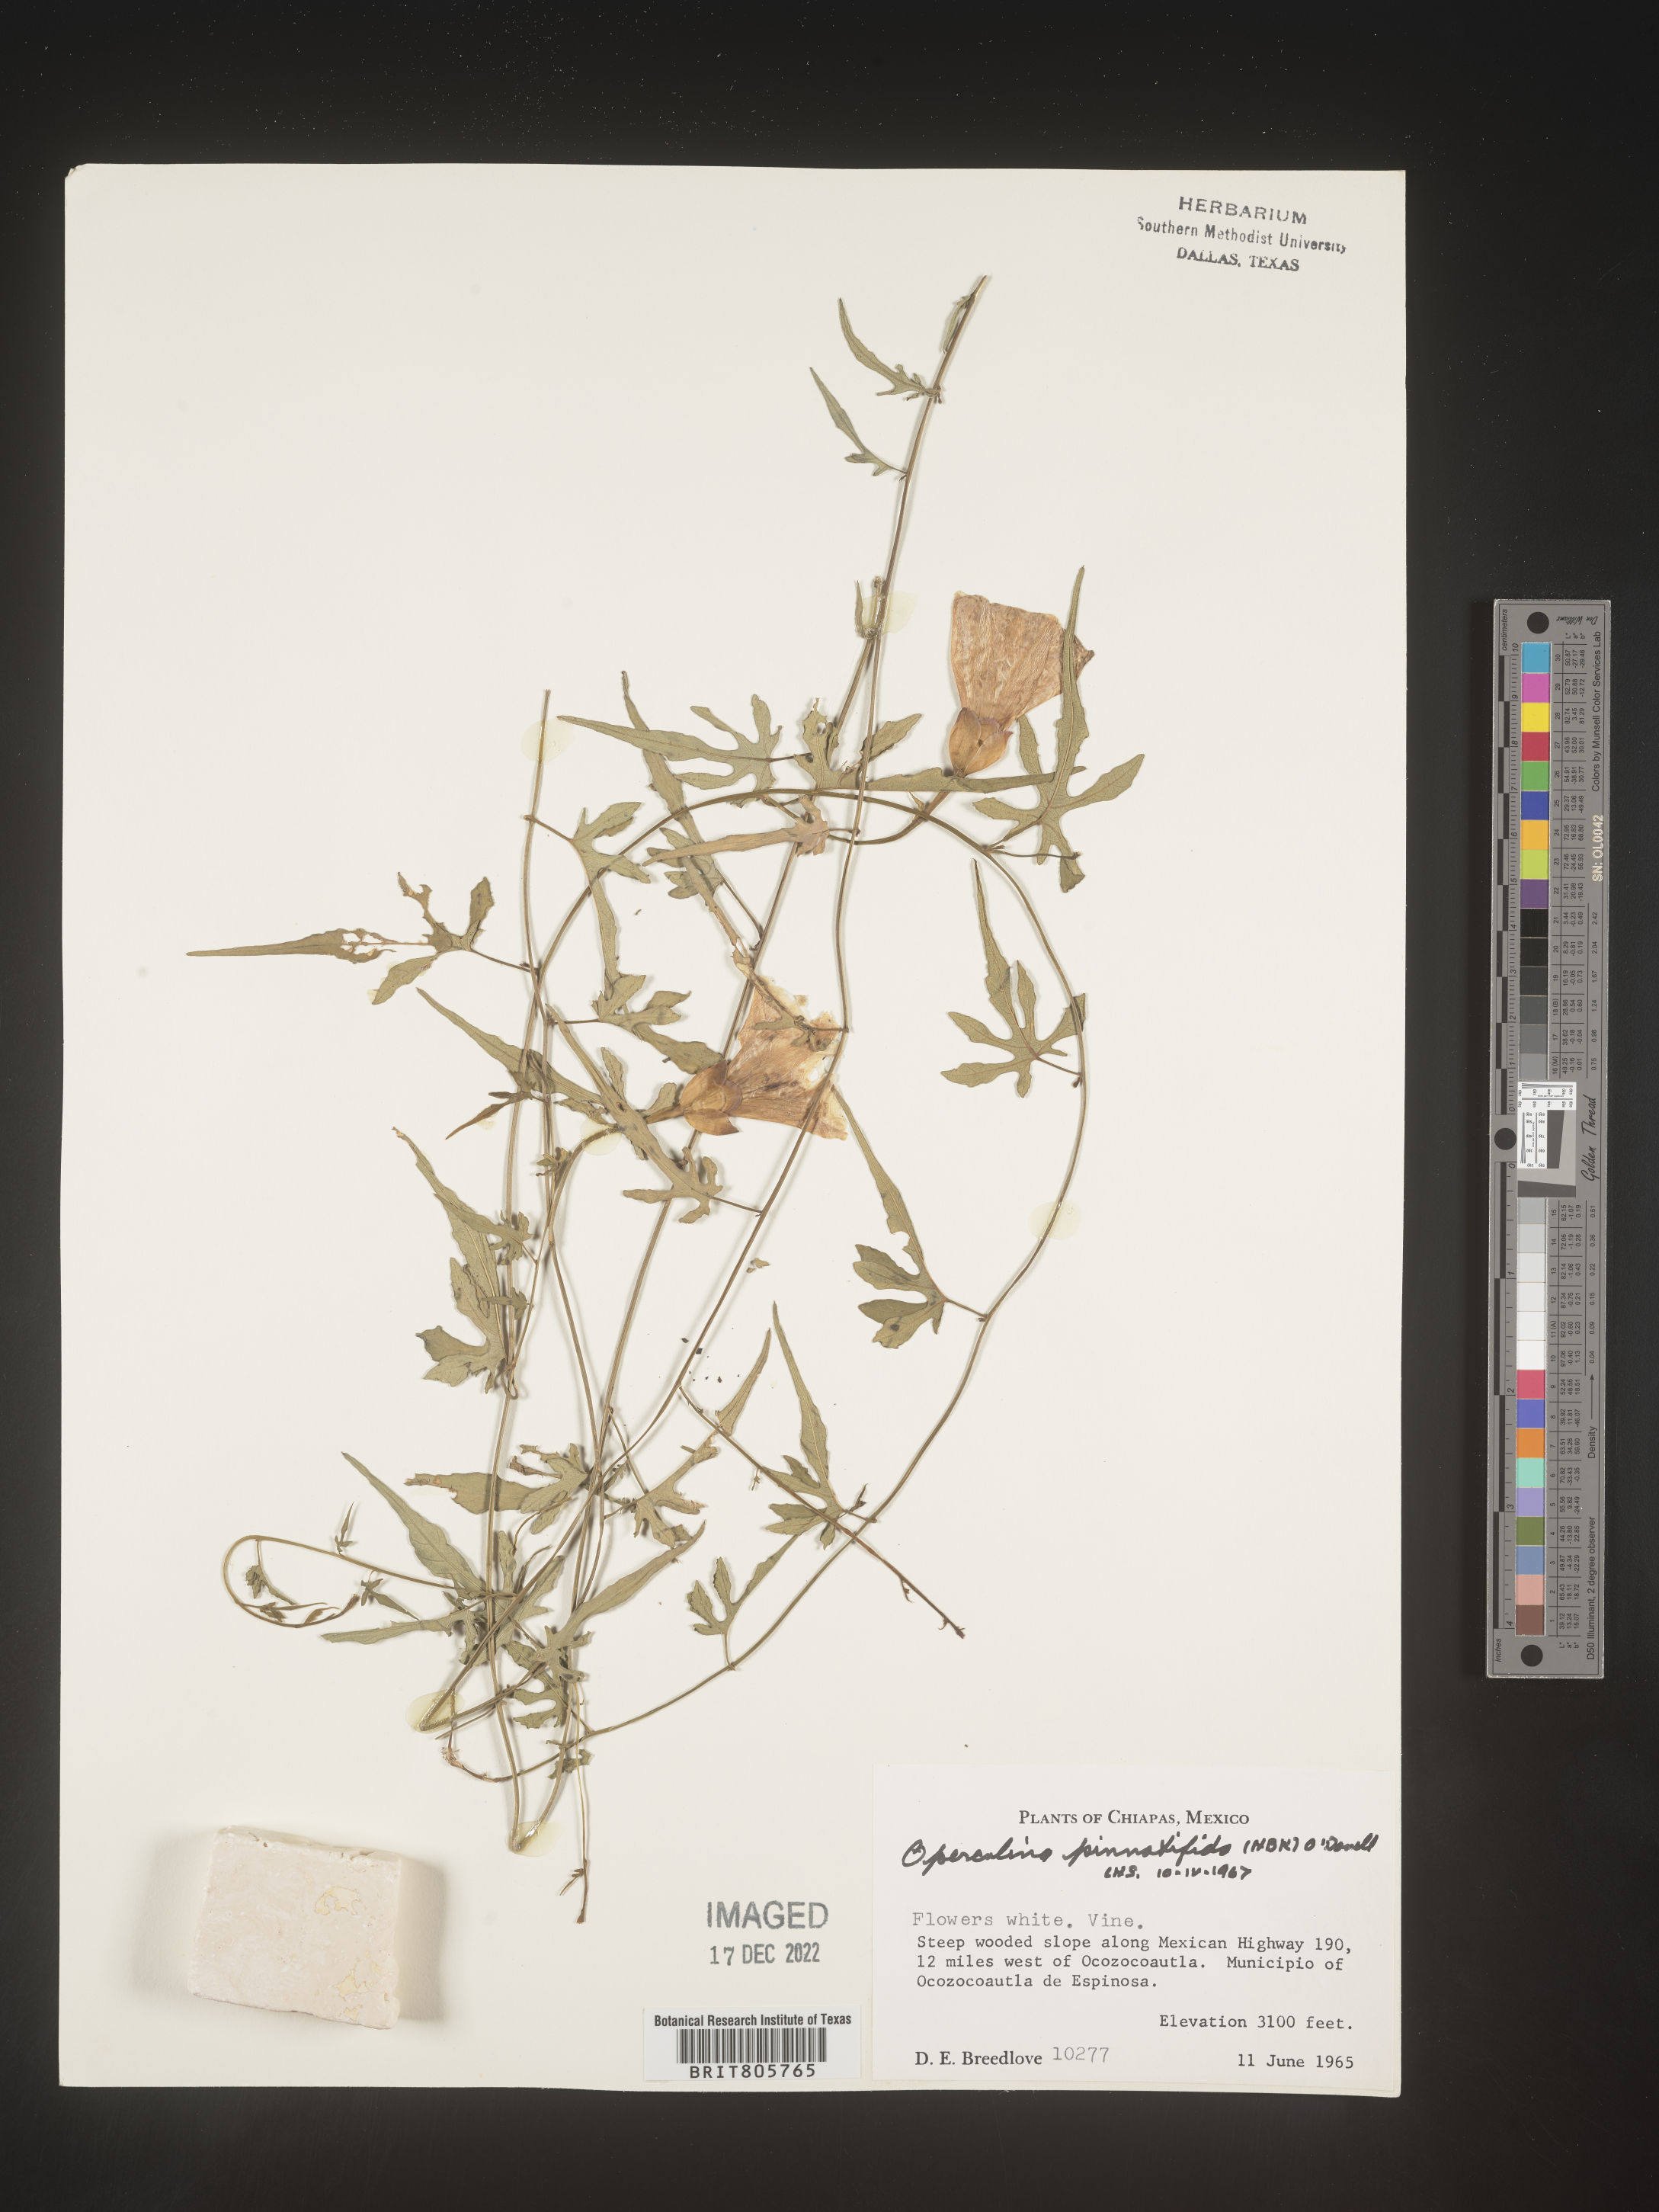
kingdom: Plantae
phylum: Tracheophyta
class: Magnoliopsida
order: Solanales
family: Convolvulaceae
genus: Operculina
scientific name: Operculina
